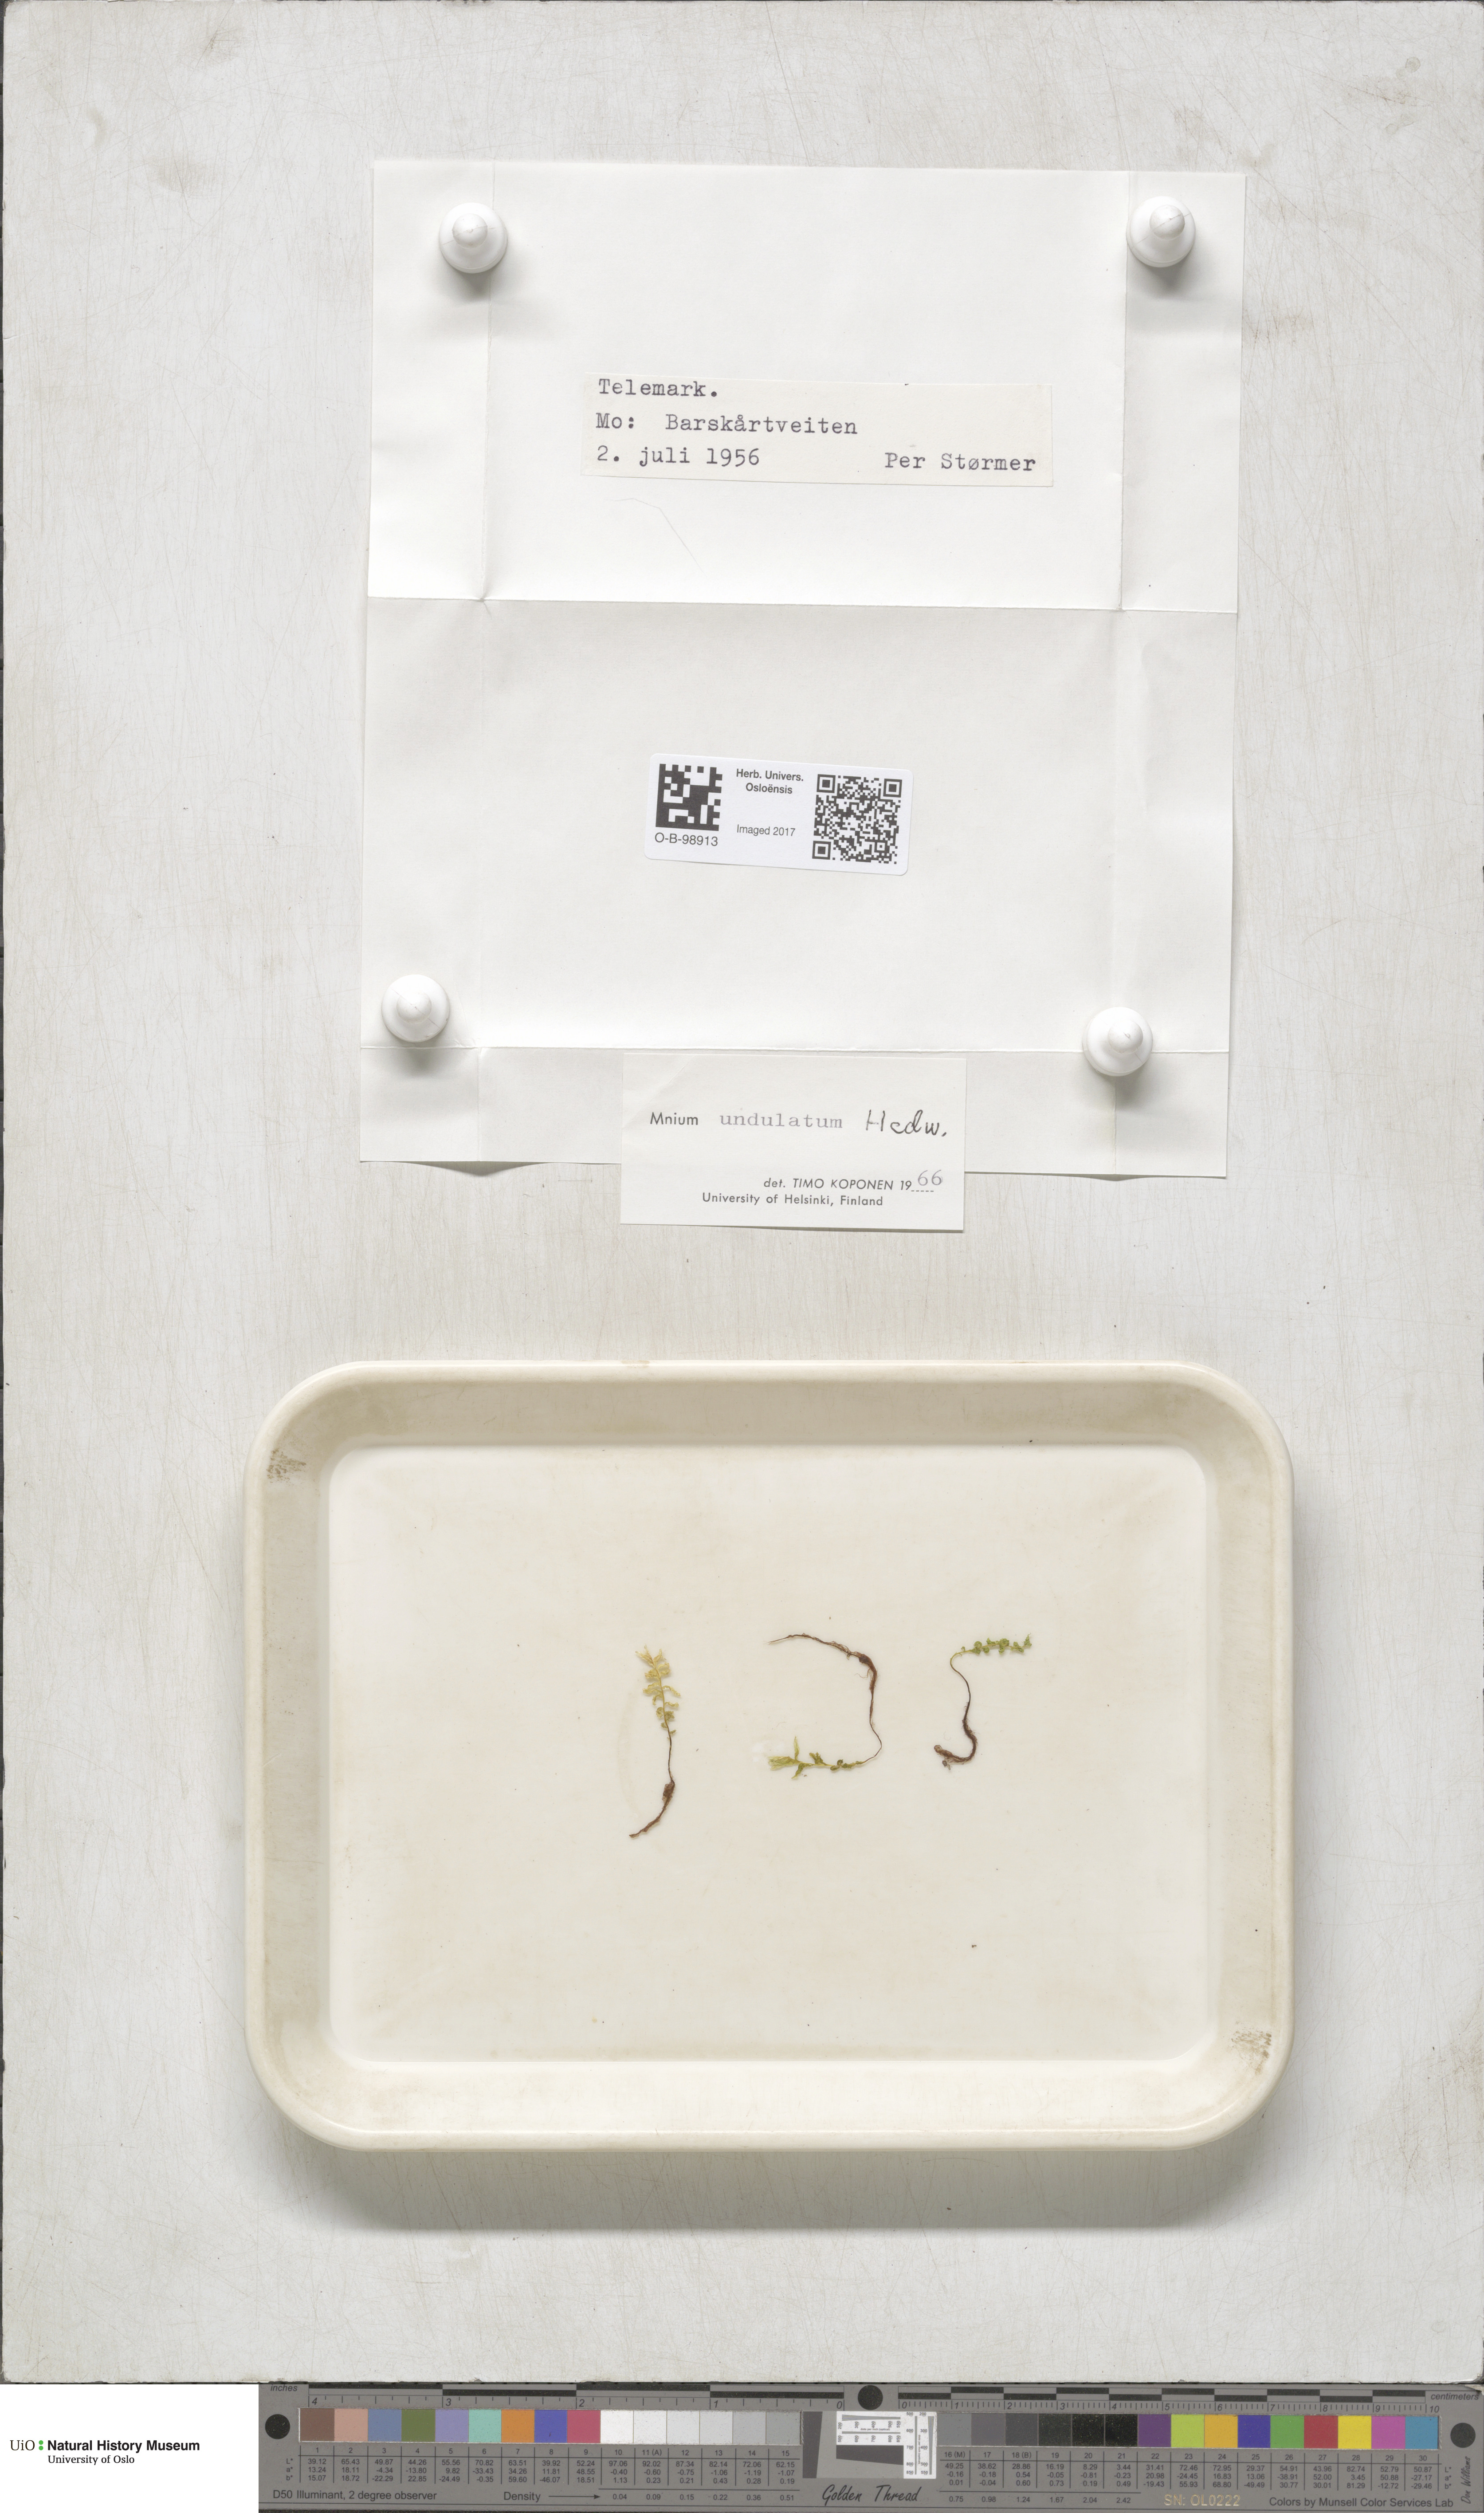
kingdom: Plantae
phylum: Bryophyta
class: Bryopsida
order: Bryales
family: Mniaceae
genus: Plagiomnium
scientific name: Plagiomnium undulatum
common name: Hart's-tongue thyme-moss
